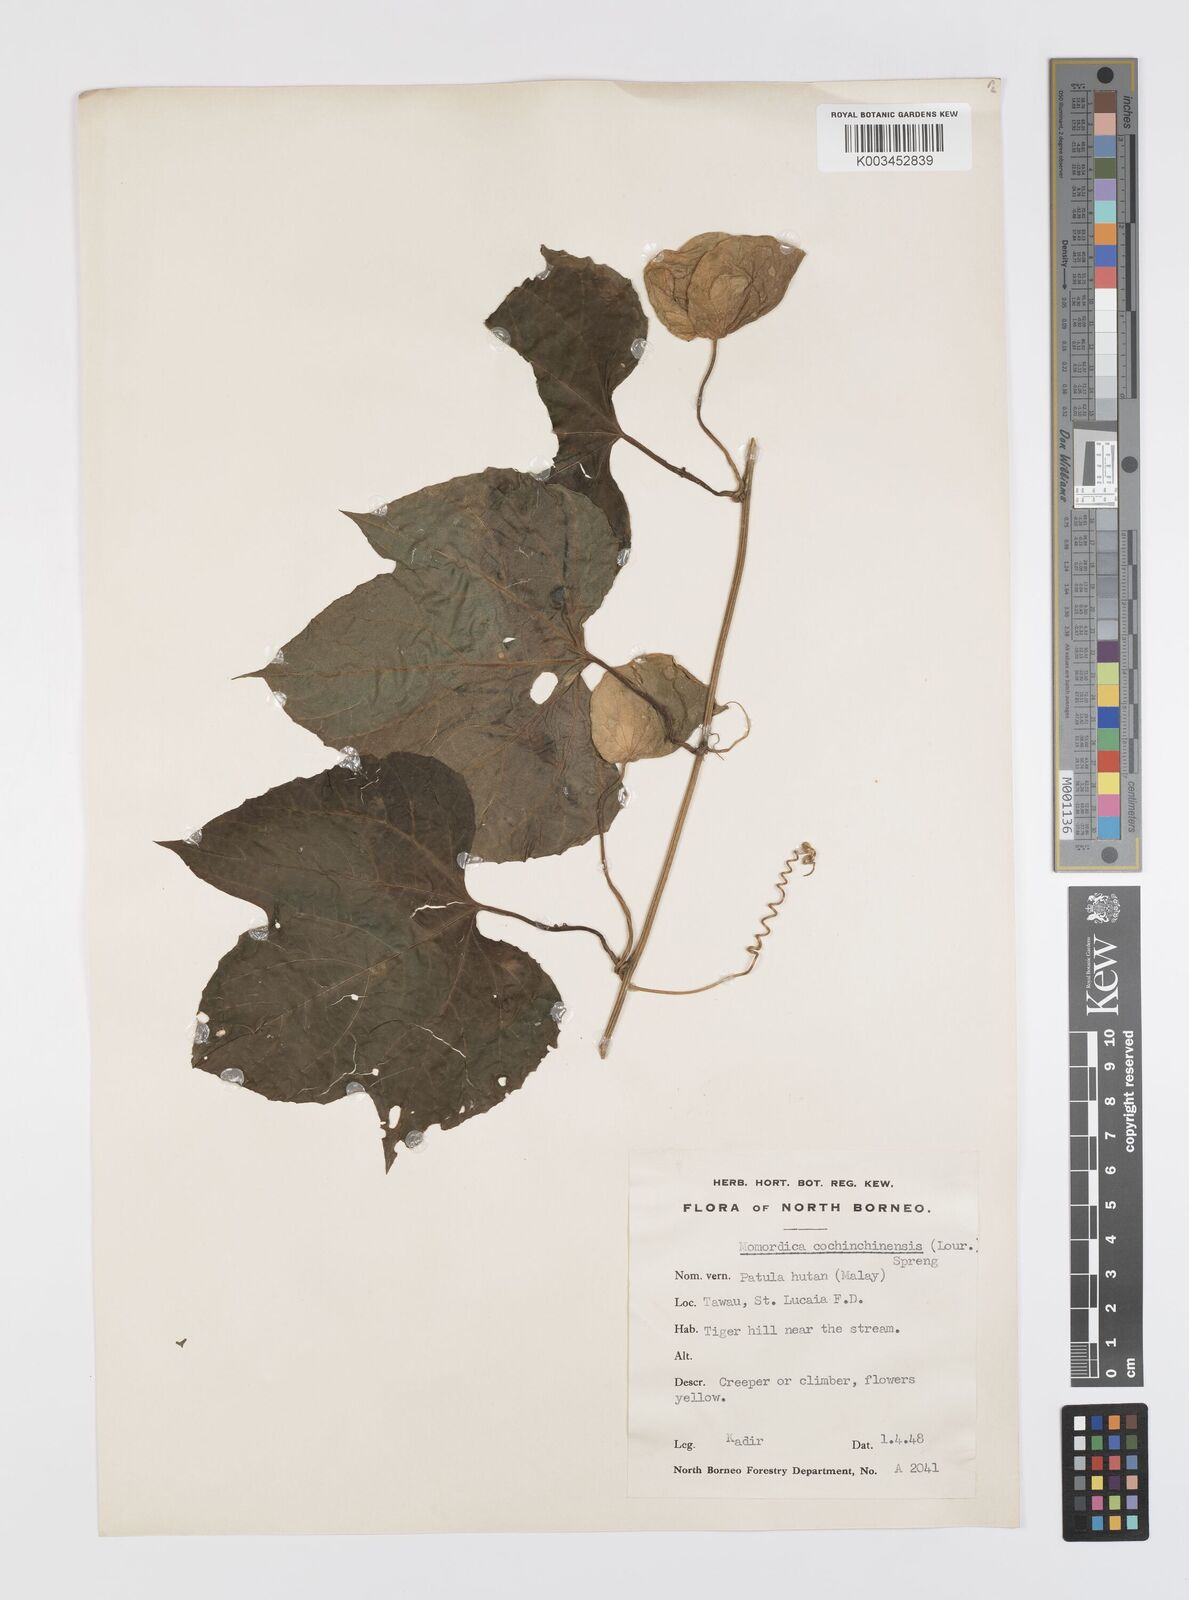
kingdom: Plantae
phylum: Tracheophyta
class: Magnoliopsida
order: Cucurbitales
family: Cucurbitaceae
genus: Momordica
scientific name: Momordica cochinchinensis
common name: Chinese bitter-cucumber
